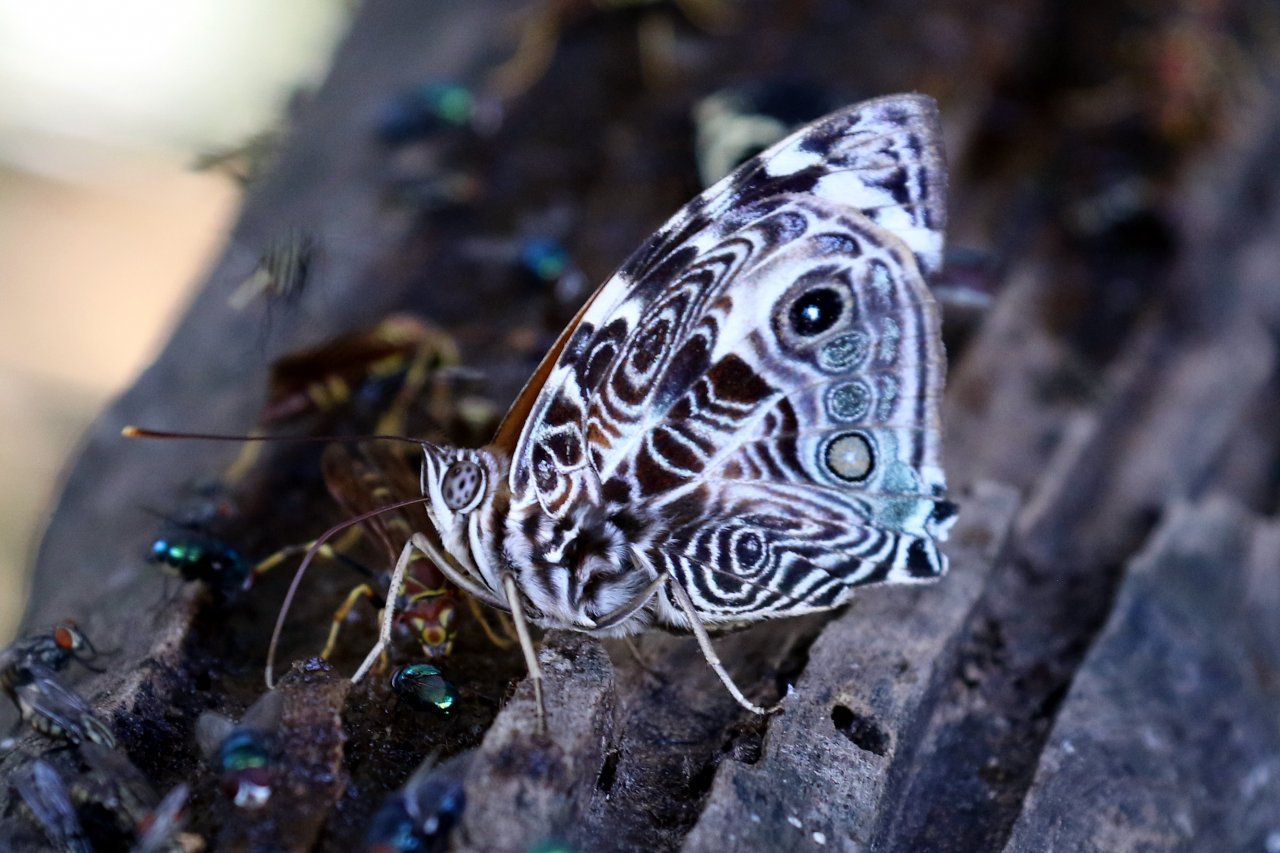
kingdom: Animalia
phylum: Arthropoda
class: Insecta
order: Lepidoptera
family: Nymphalidae
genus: Smyrna
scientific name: Smyrna blomfildia
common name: Blomfild's Beauty
